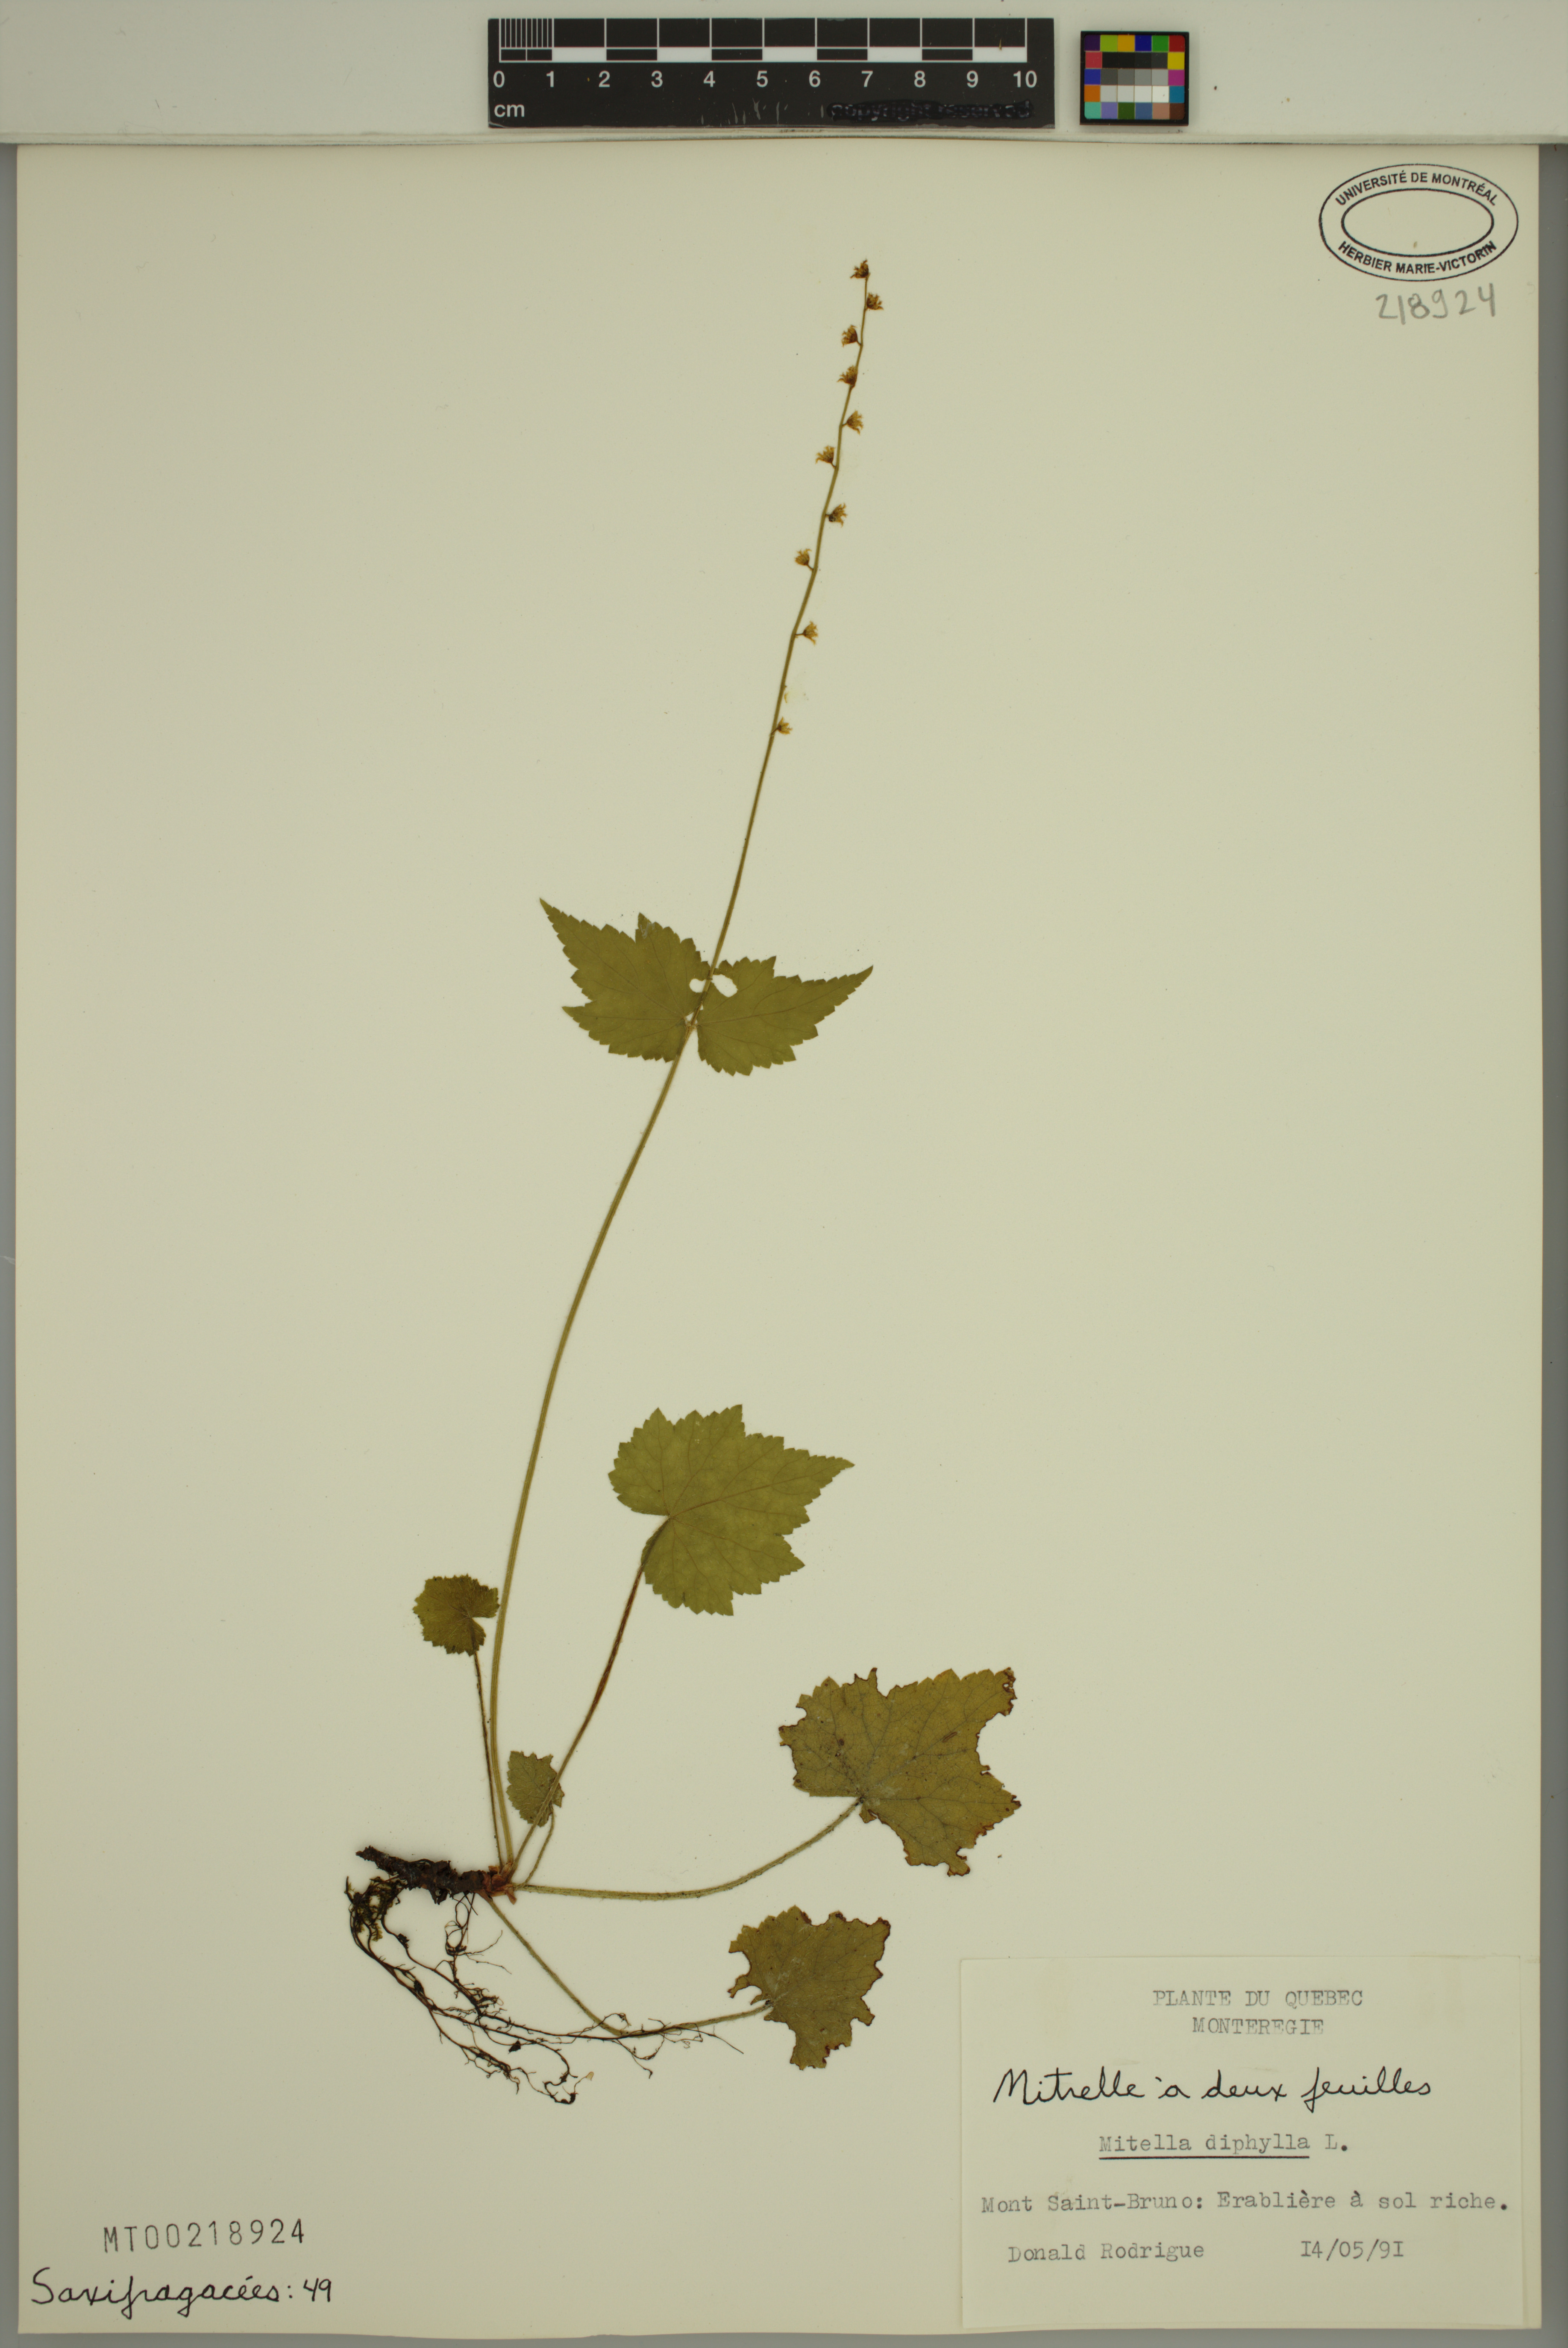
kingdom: Plantae
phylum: Tracheophyta
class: Magnoliopsida
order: Saxifragales
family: Saxifragaceae
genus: Mitella
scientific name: Mitella diphylla
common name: Coolwort
